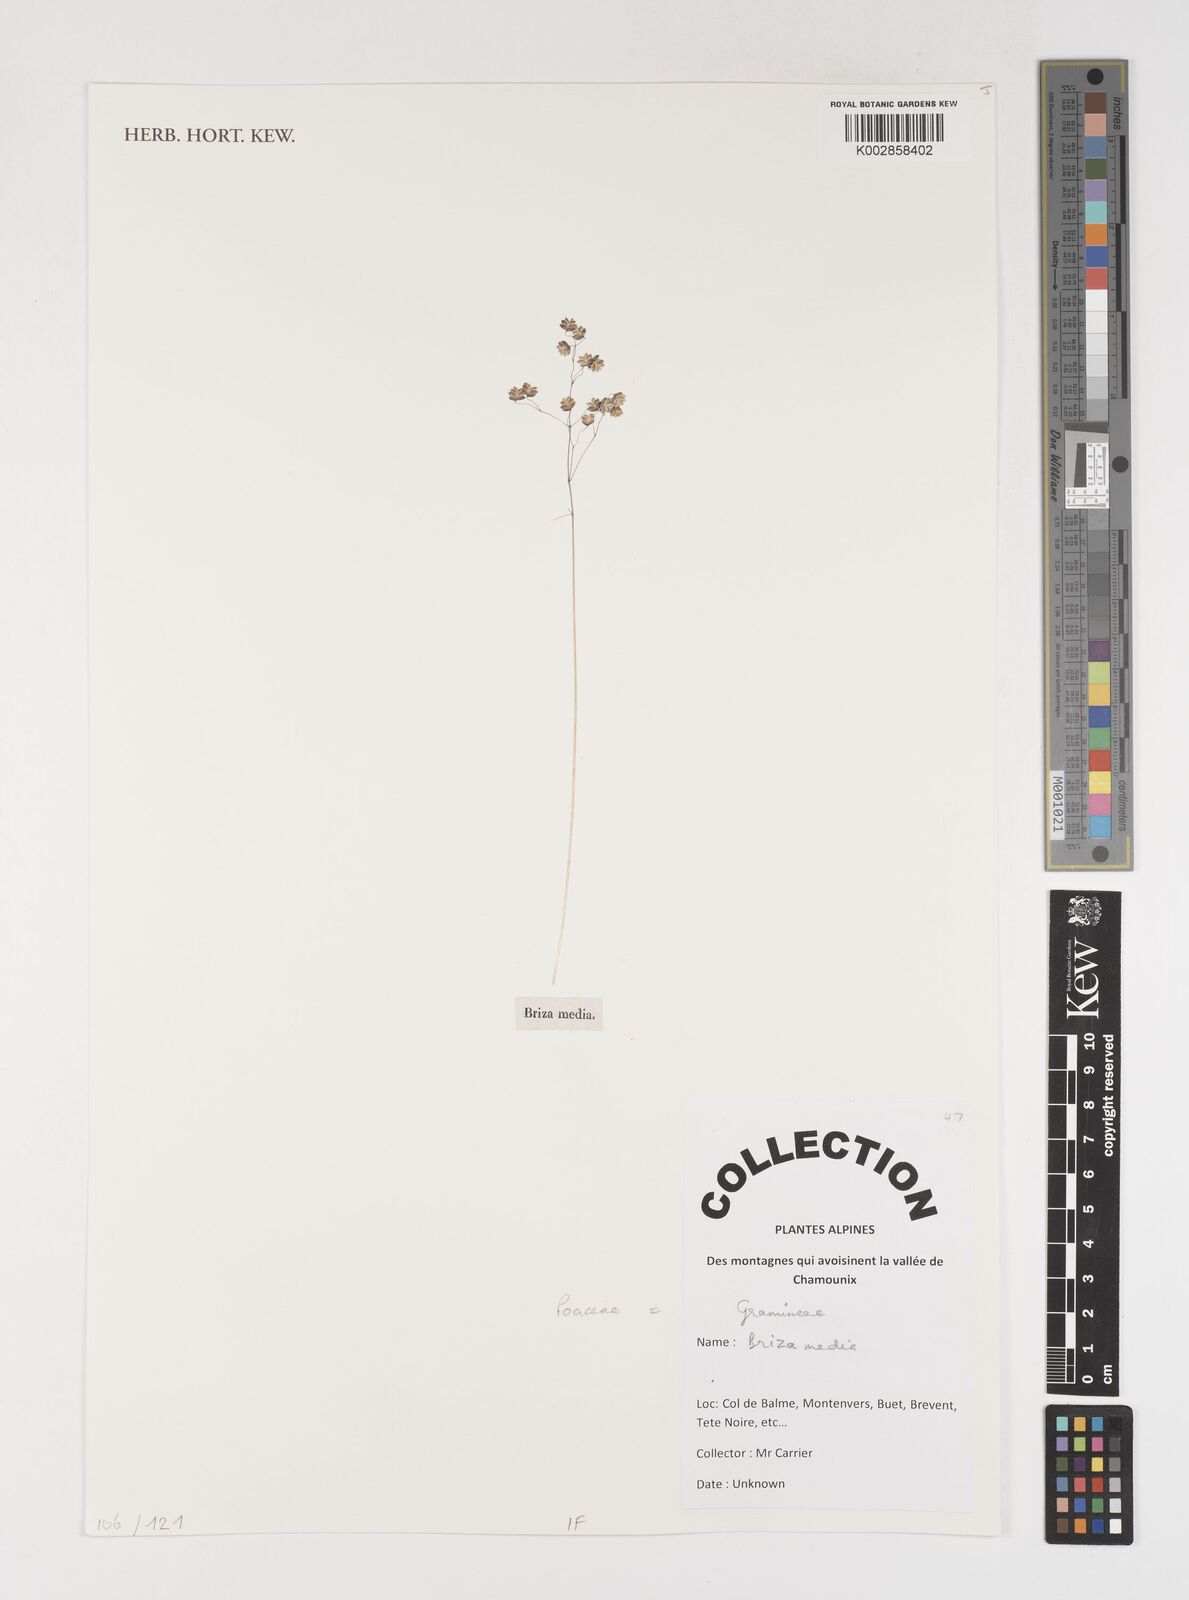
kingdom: Plantae
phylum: Tracheophyta
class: Liliopsida
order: Poales
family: Poaceae
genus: Briza
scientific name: Briza media
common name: Quaking grass
